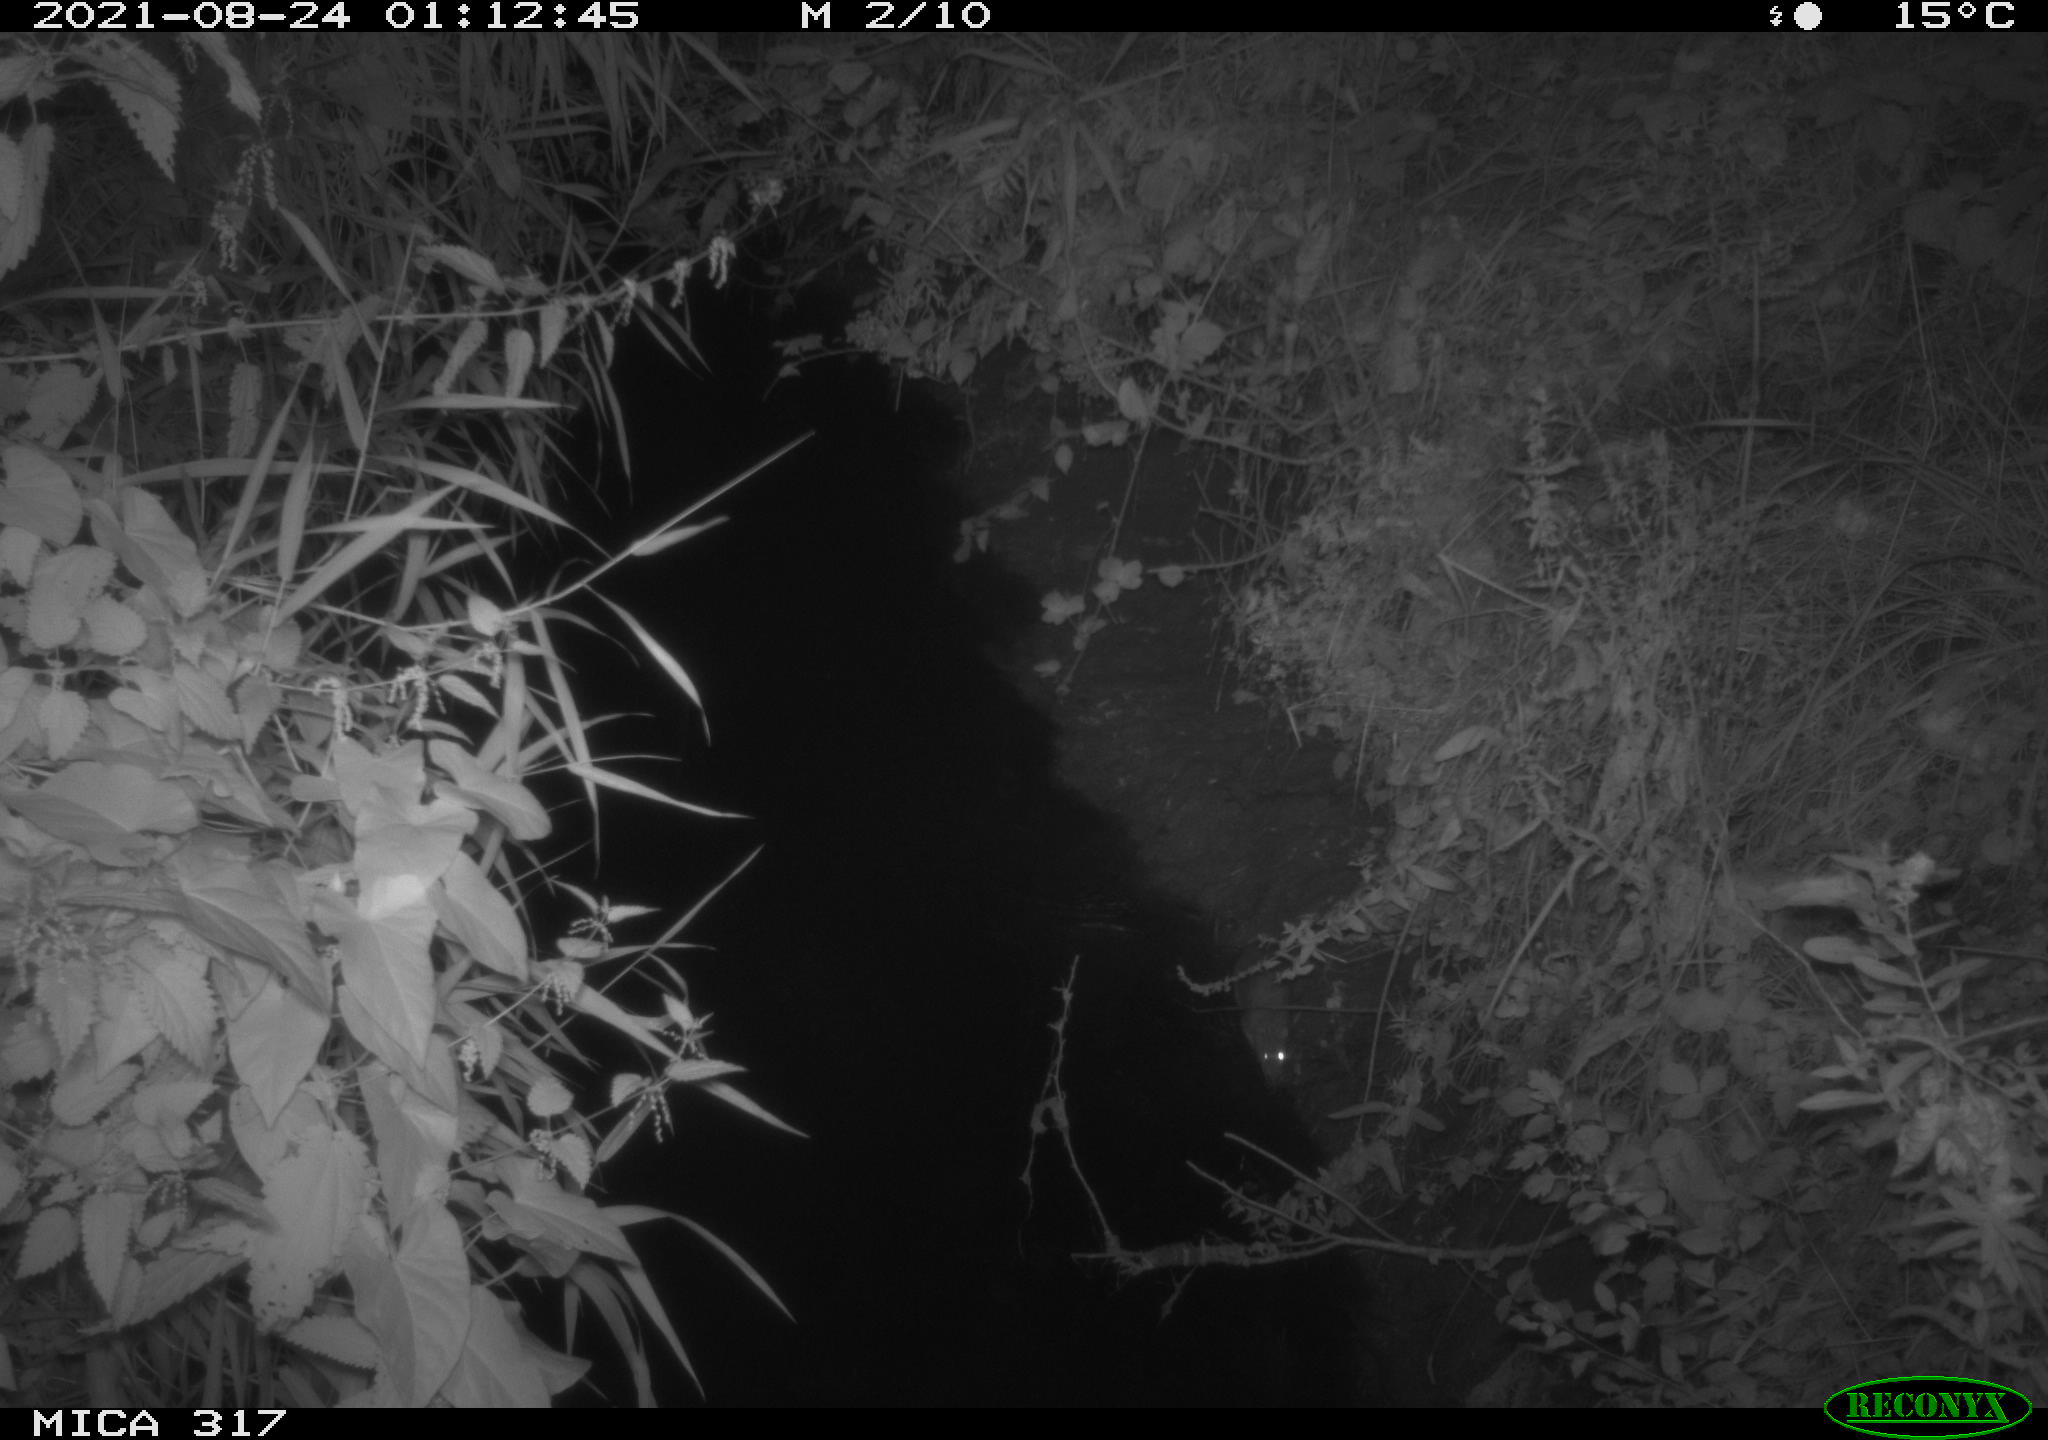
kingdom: Animalia
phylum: Chordata
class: Mammalia
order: Rodentia
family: Muridae
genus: Rattus
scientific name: Rattus norvegicus
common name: Brown rat
